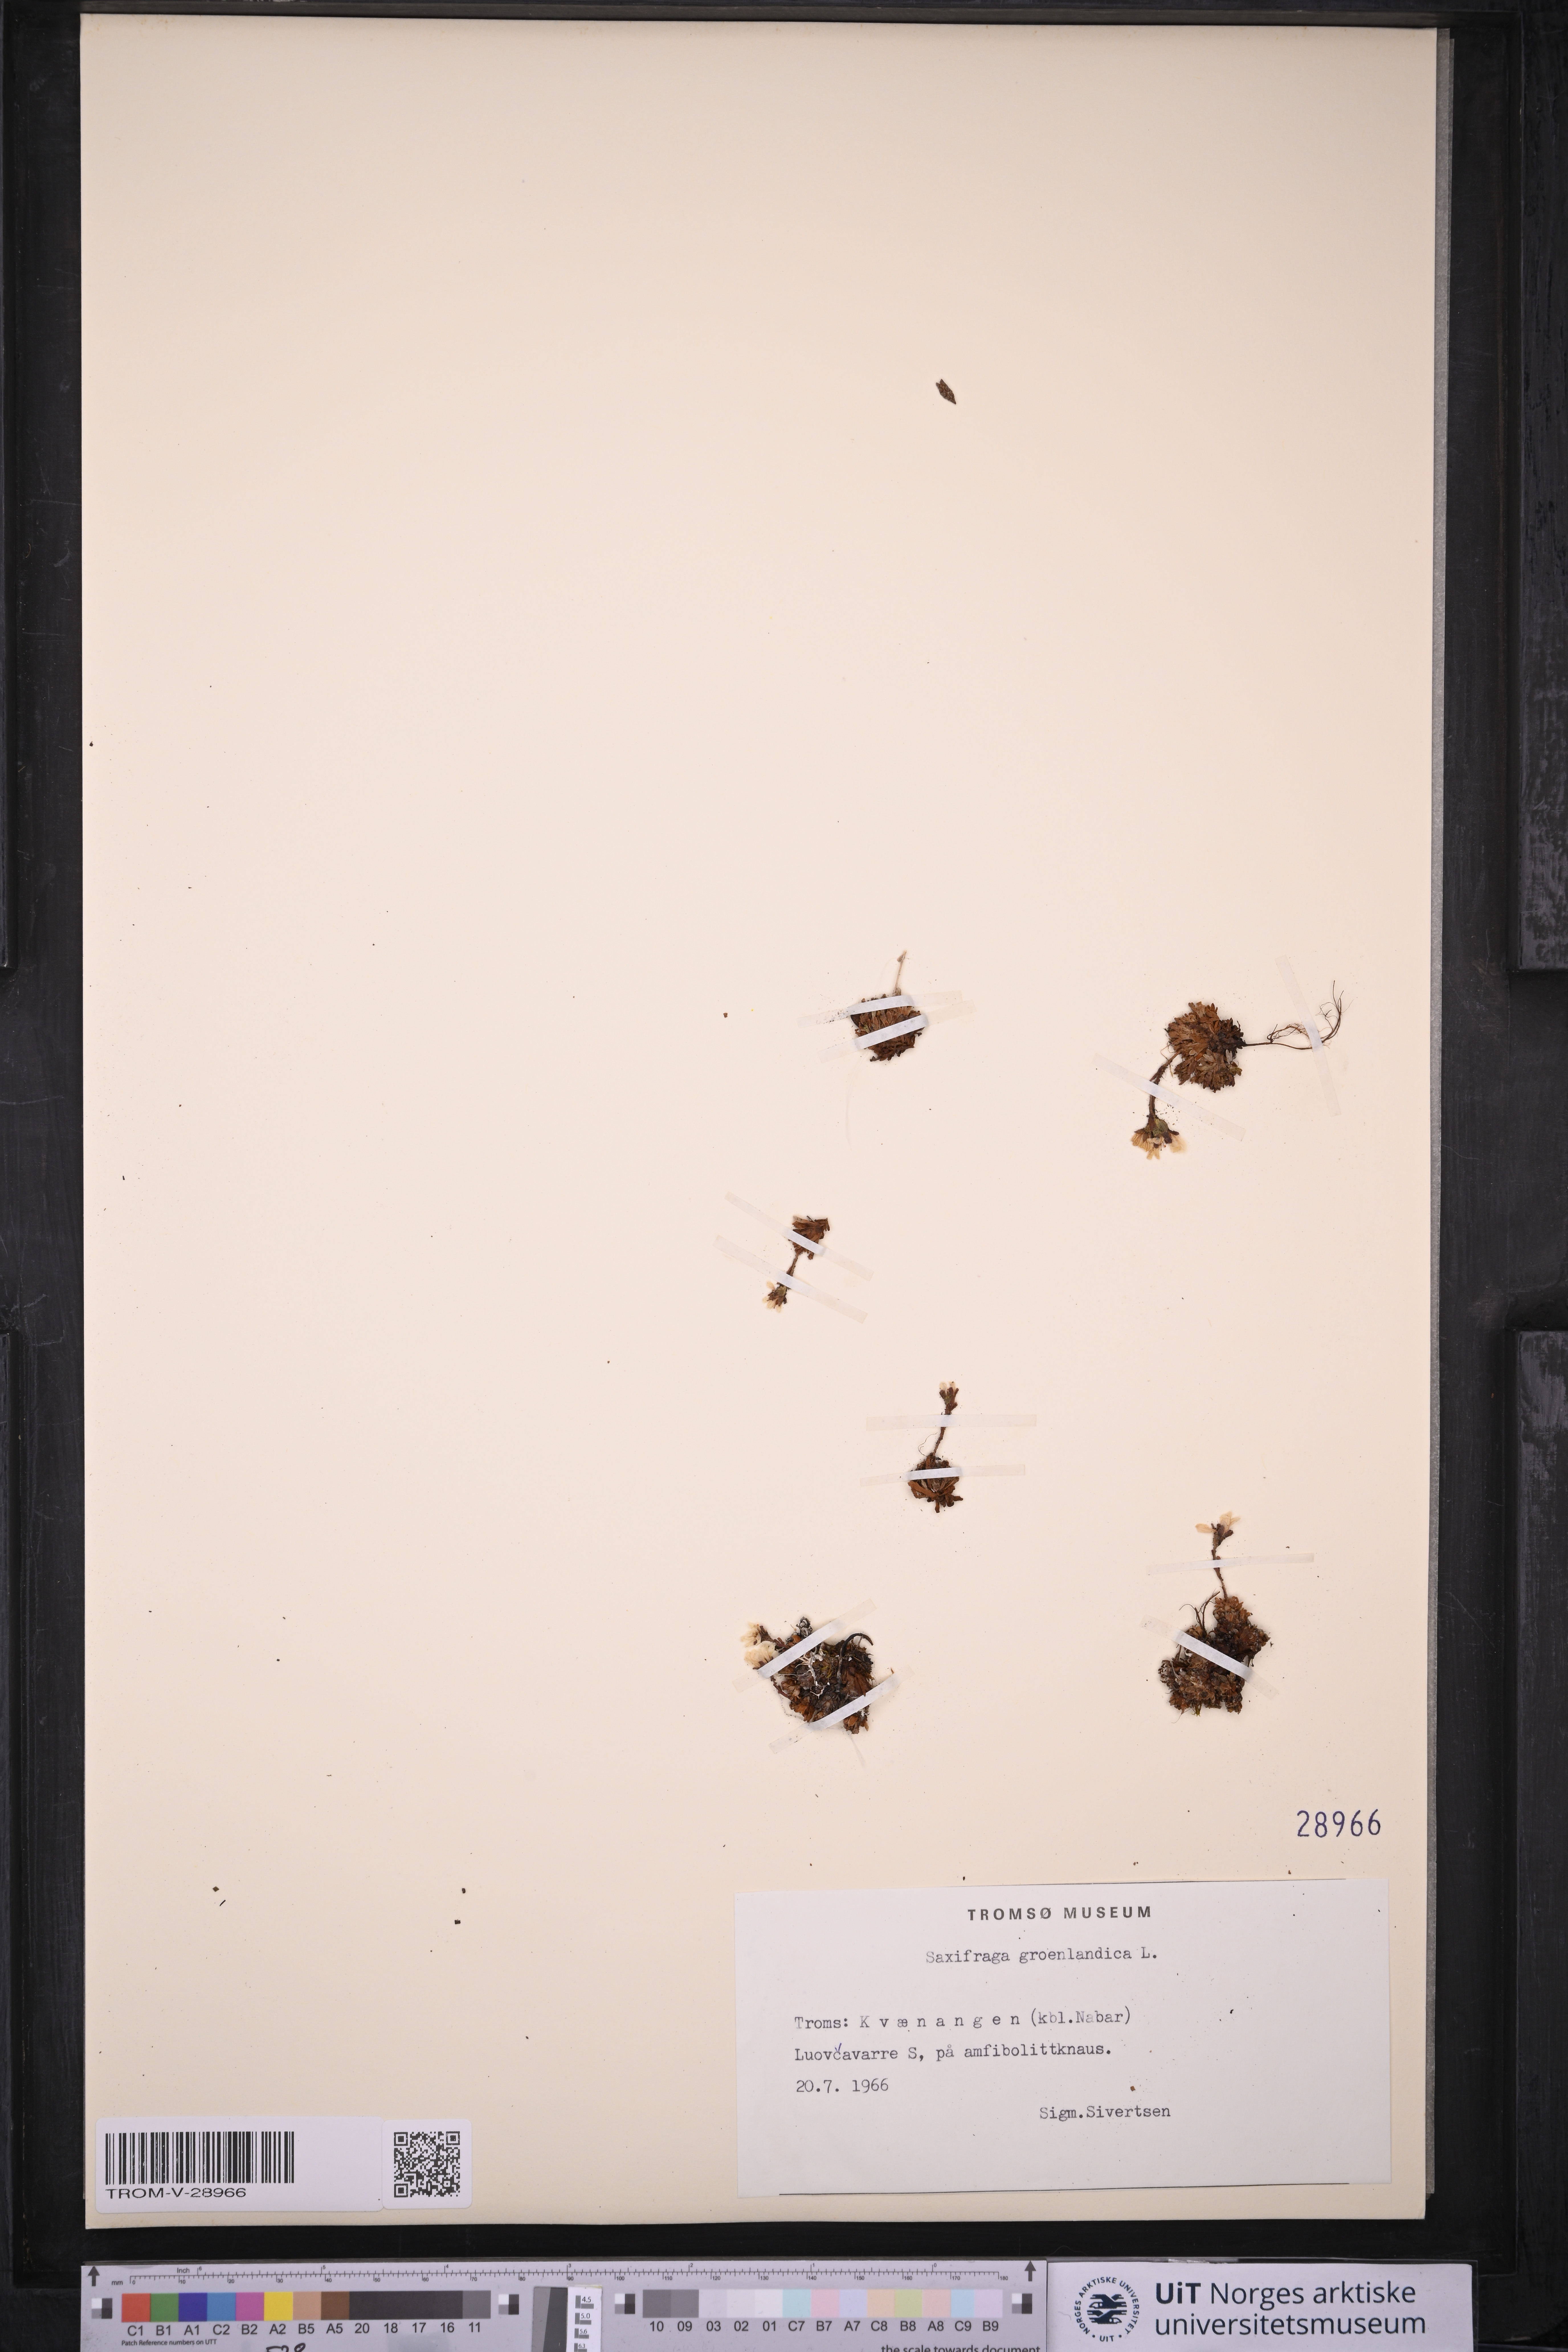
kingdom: Plantae
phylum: Tracheophyta
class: Magnoliopsida
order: Saxifragales
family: Saxifragaceae
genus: Saxifraga
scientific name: Saxifraga cespitosa
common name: Tufted saxifrage
